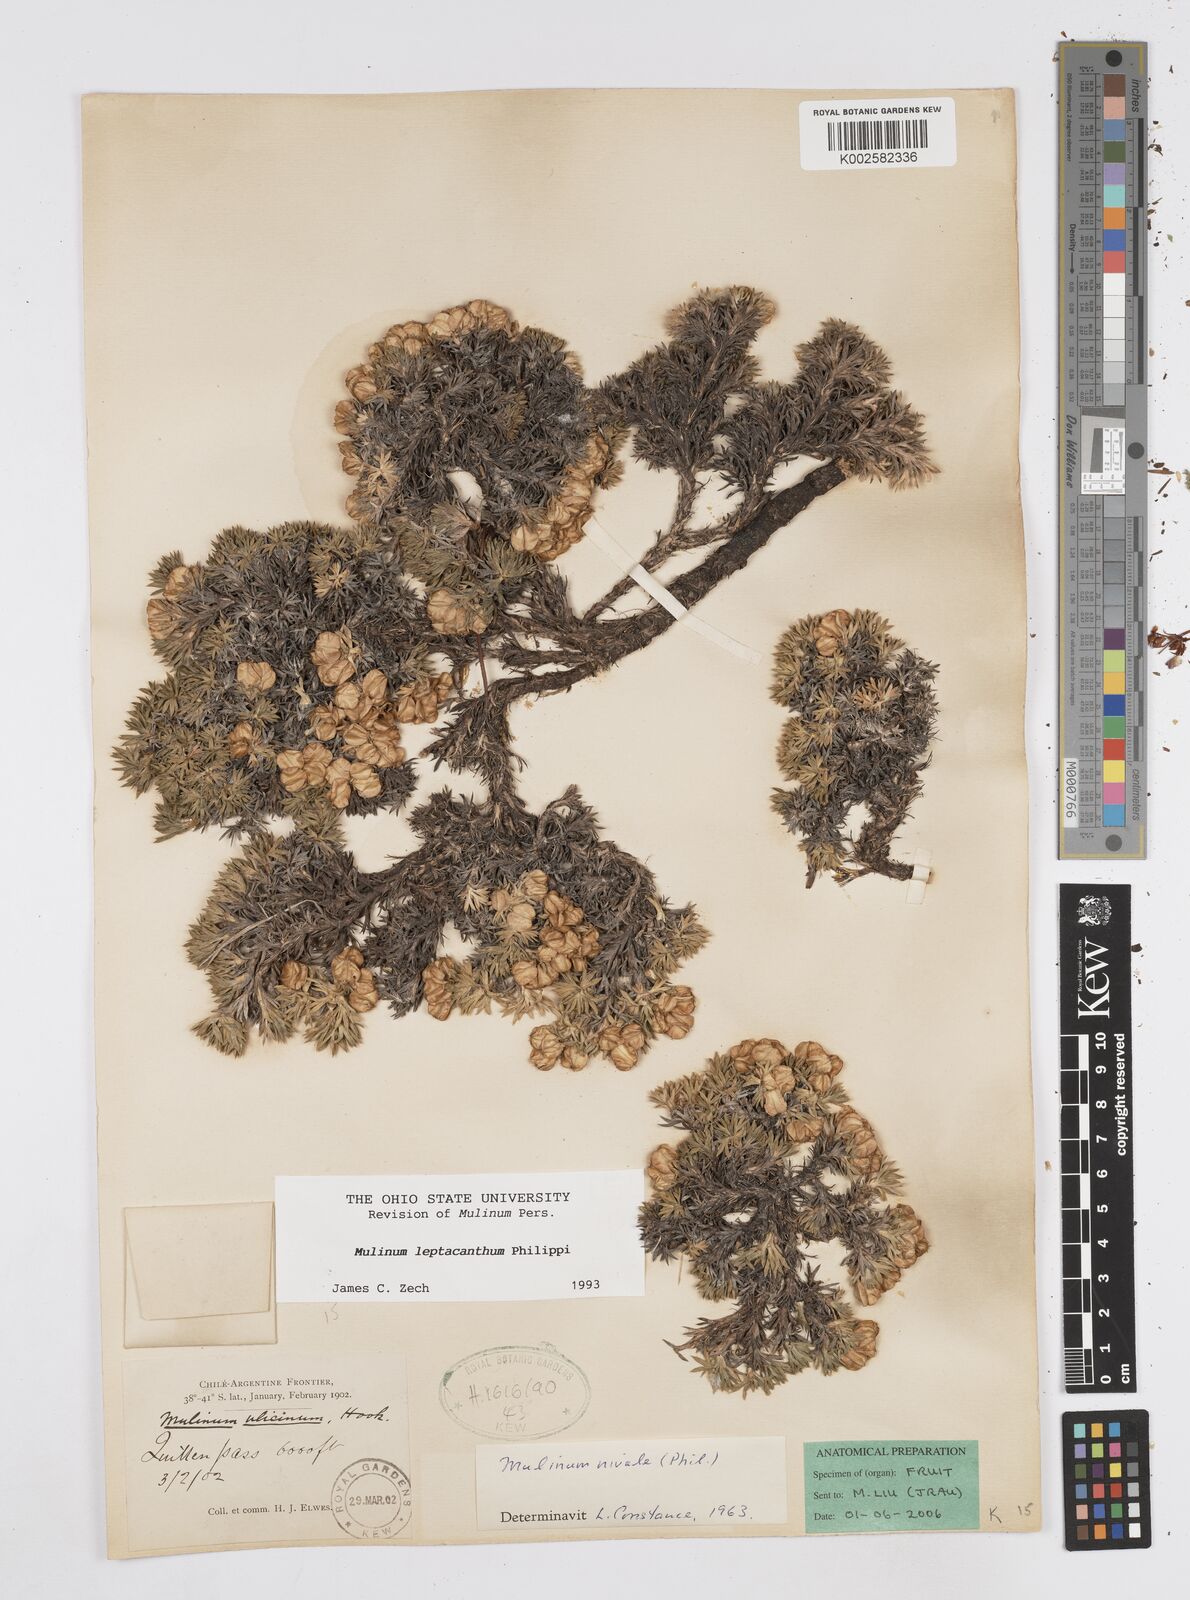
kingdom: Plantae
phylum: Tracheophyta
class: Magnoliopsida
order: Apiales
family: Apiaceae
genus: Azorella
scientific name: Azorella nivalis
